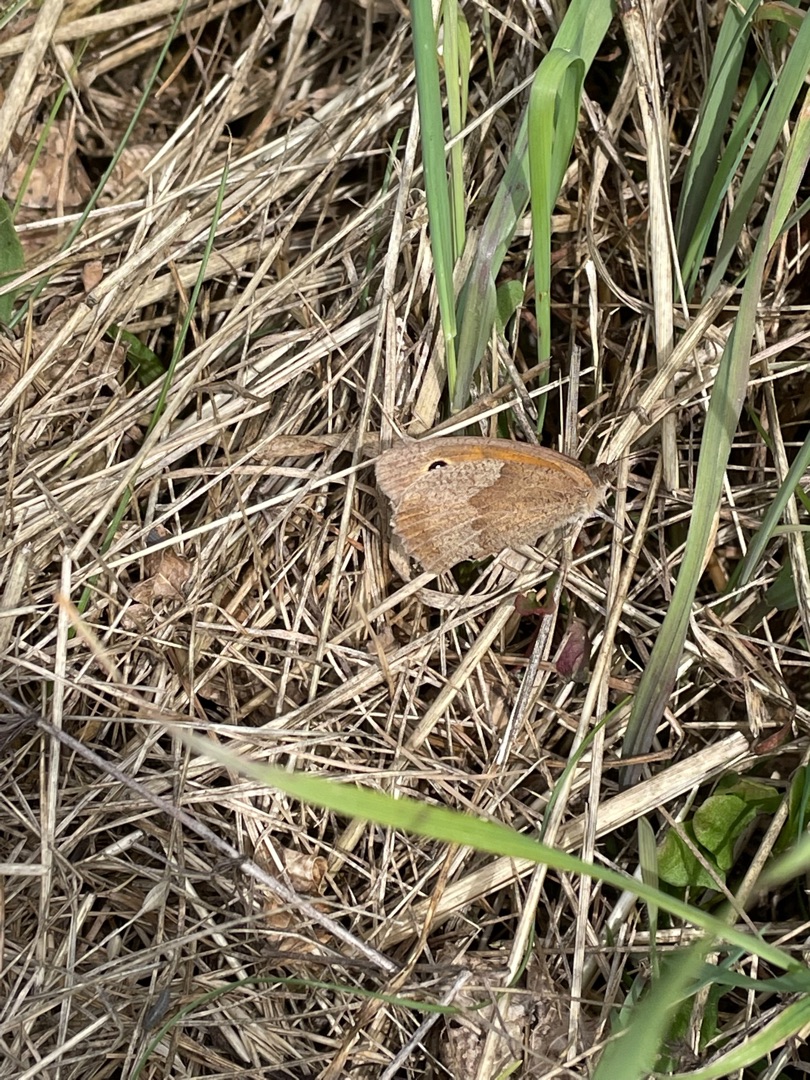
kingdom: Animalia
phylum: Arthropoda
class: Insecta
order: Lepidoptera
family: Nymphalidae
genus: Maniola
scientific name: Maniola jurtina
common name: Græsrandøje
